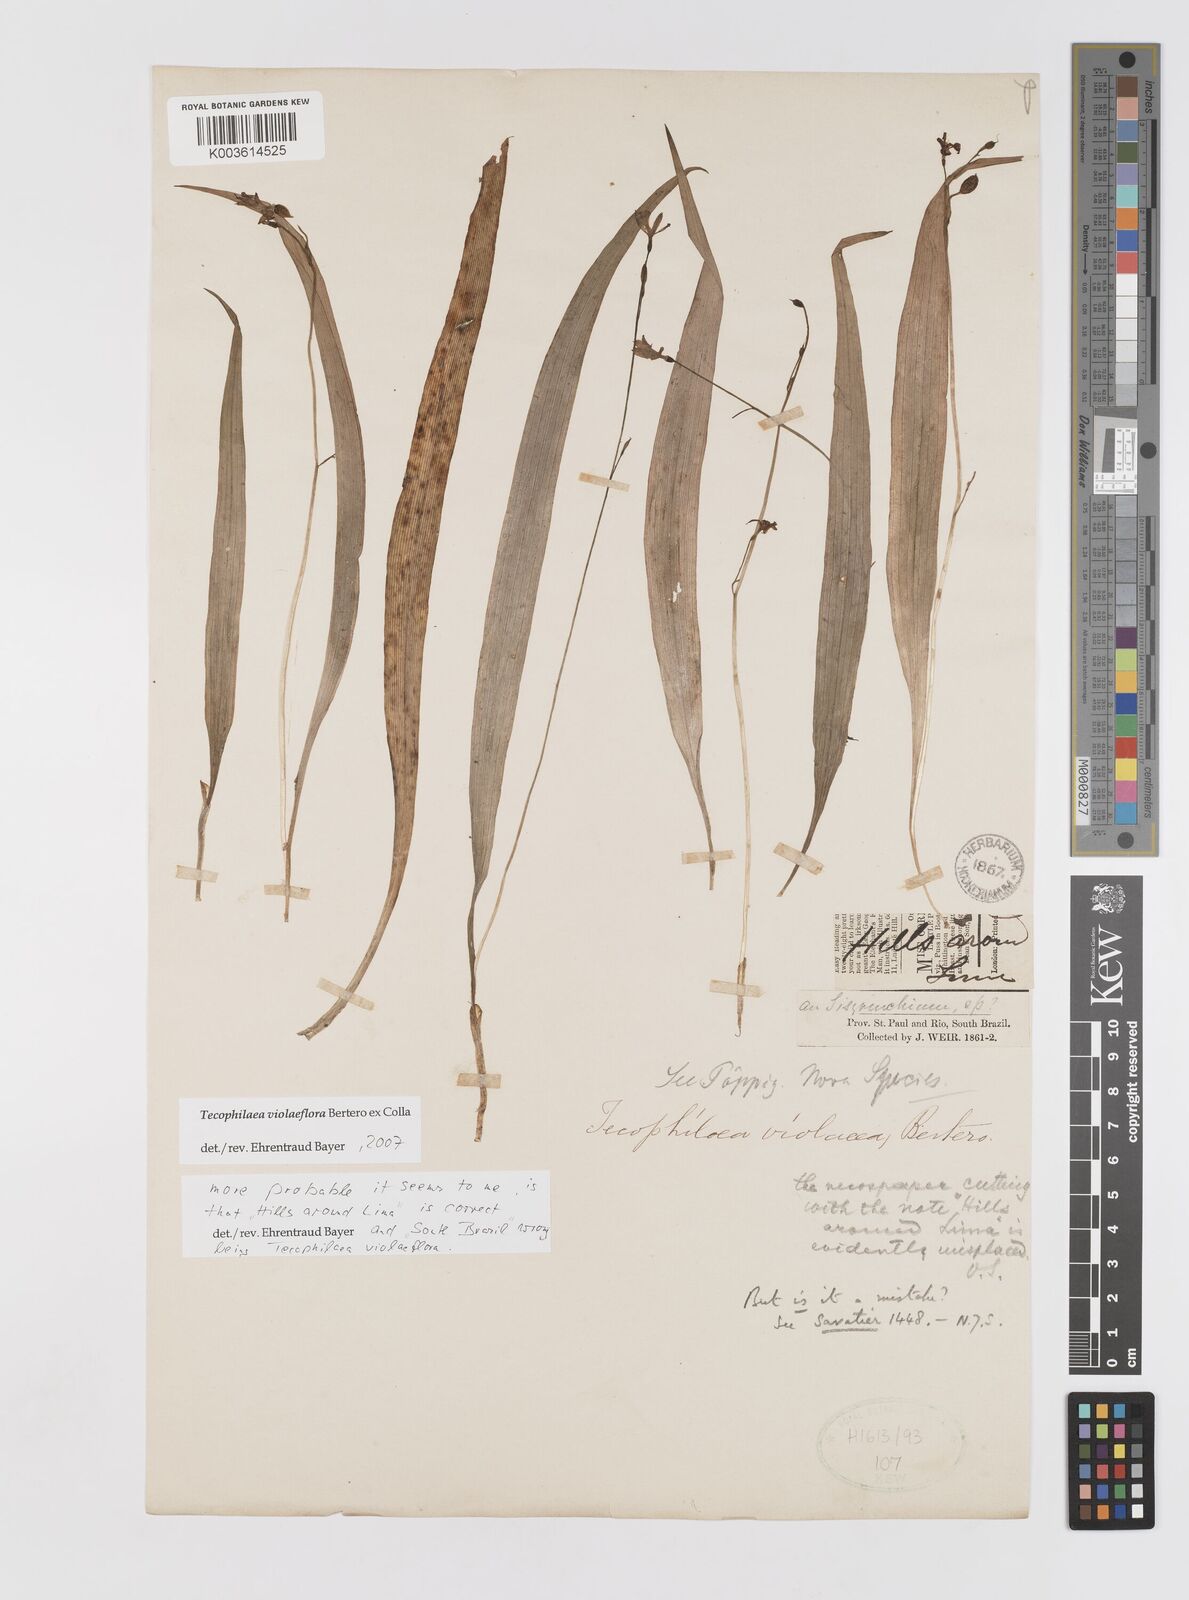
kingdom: Plantae
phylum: Tracheophyta
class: Liliopsida
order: Asparagales
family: Tecophilaeaceae
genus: Tecophilaea
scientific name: Tecophilaea violiflora
